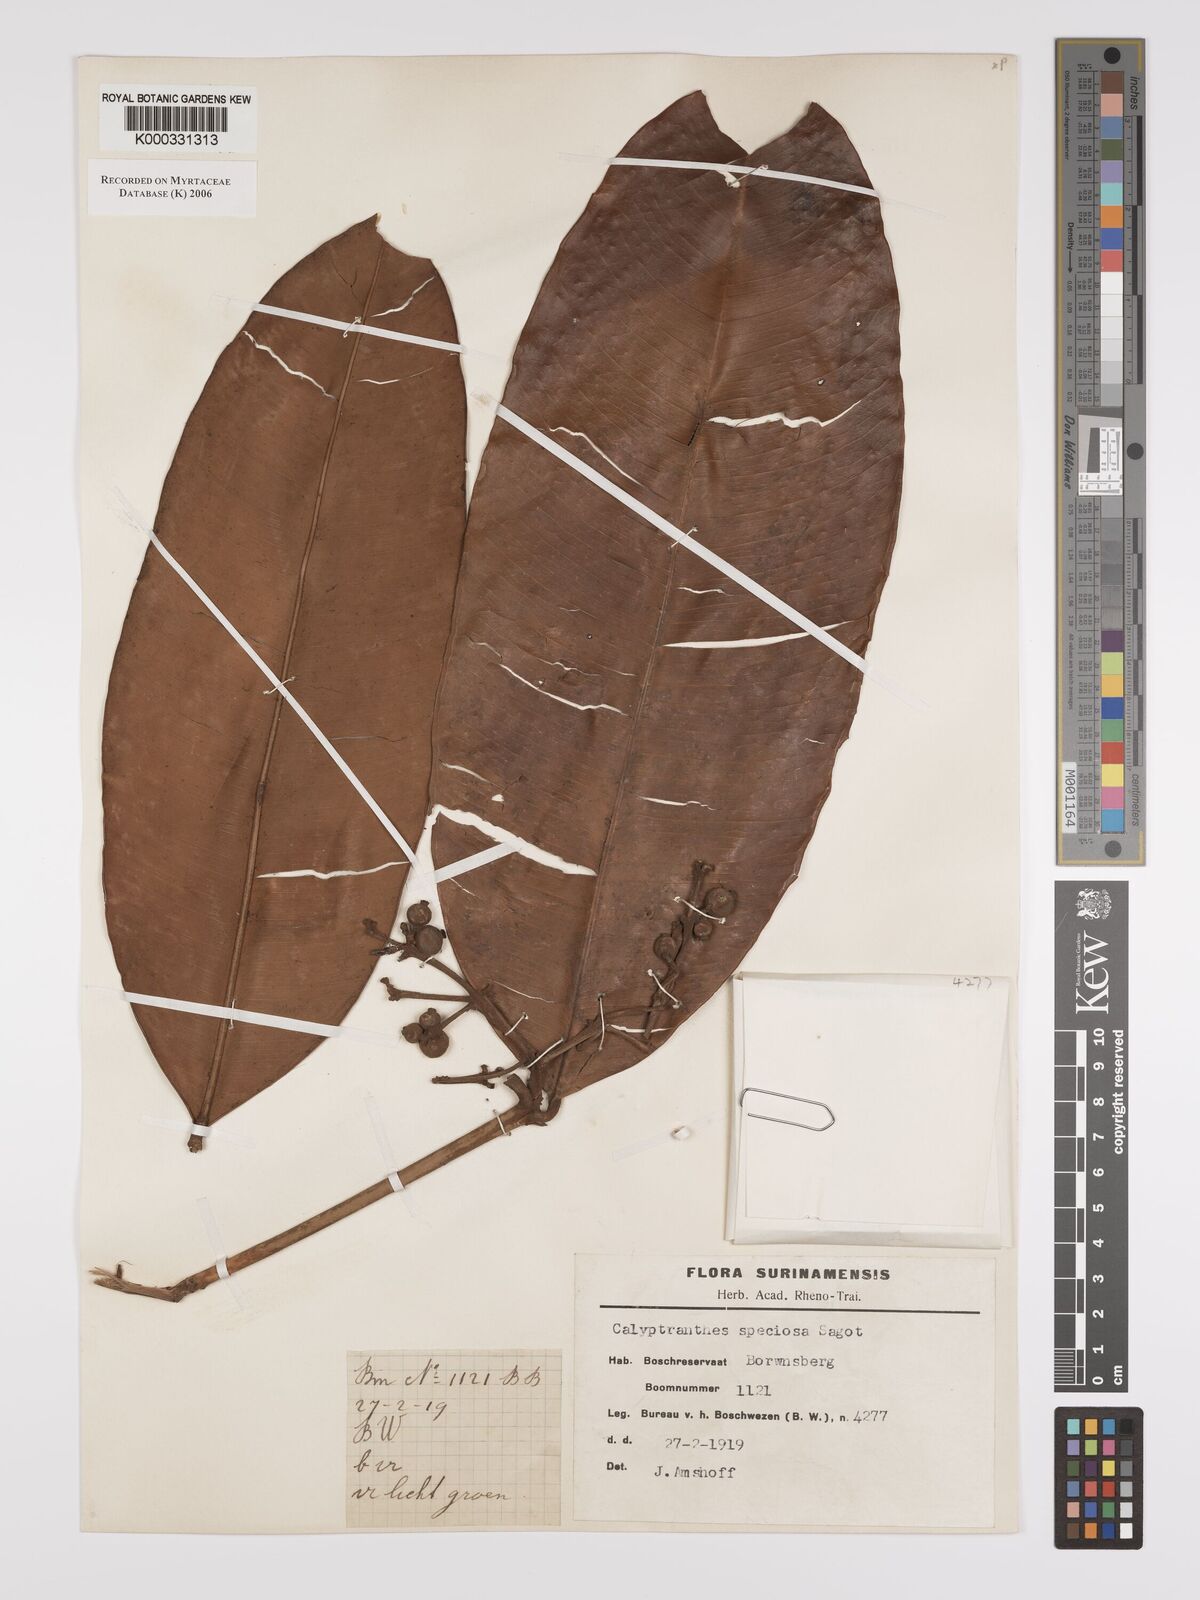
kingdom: Plantae
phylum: Tracheophyta
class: Magnoliopsida
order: Myrtales
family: Myrtaceae
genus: Myrcia
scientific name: Myrcia neospeciosa
